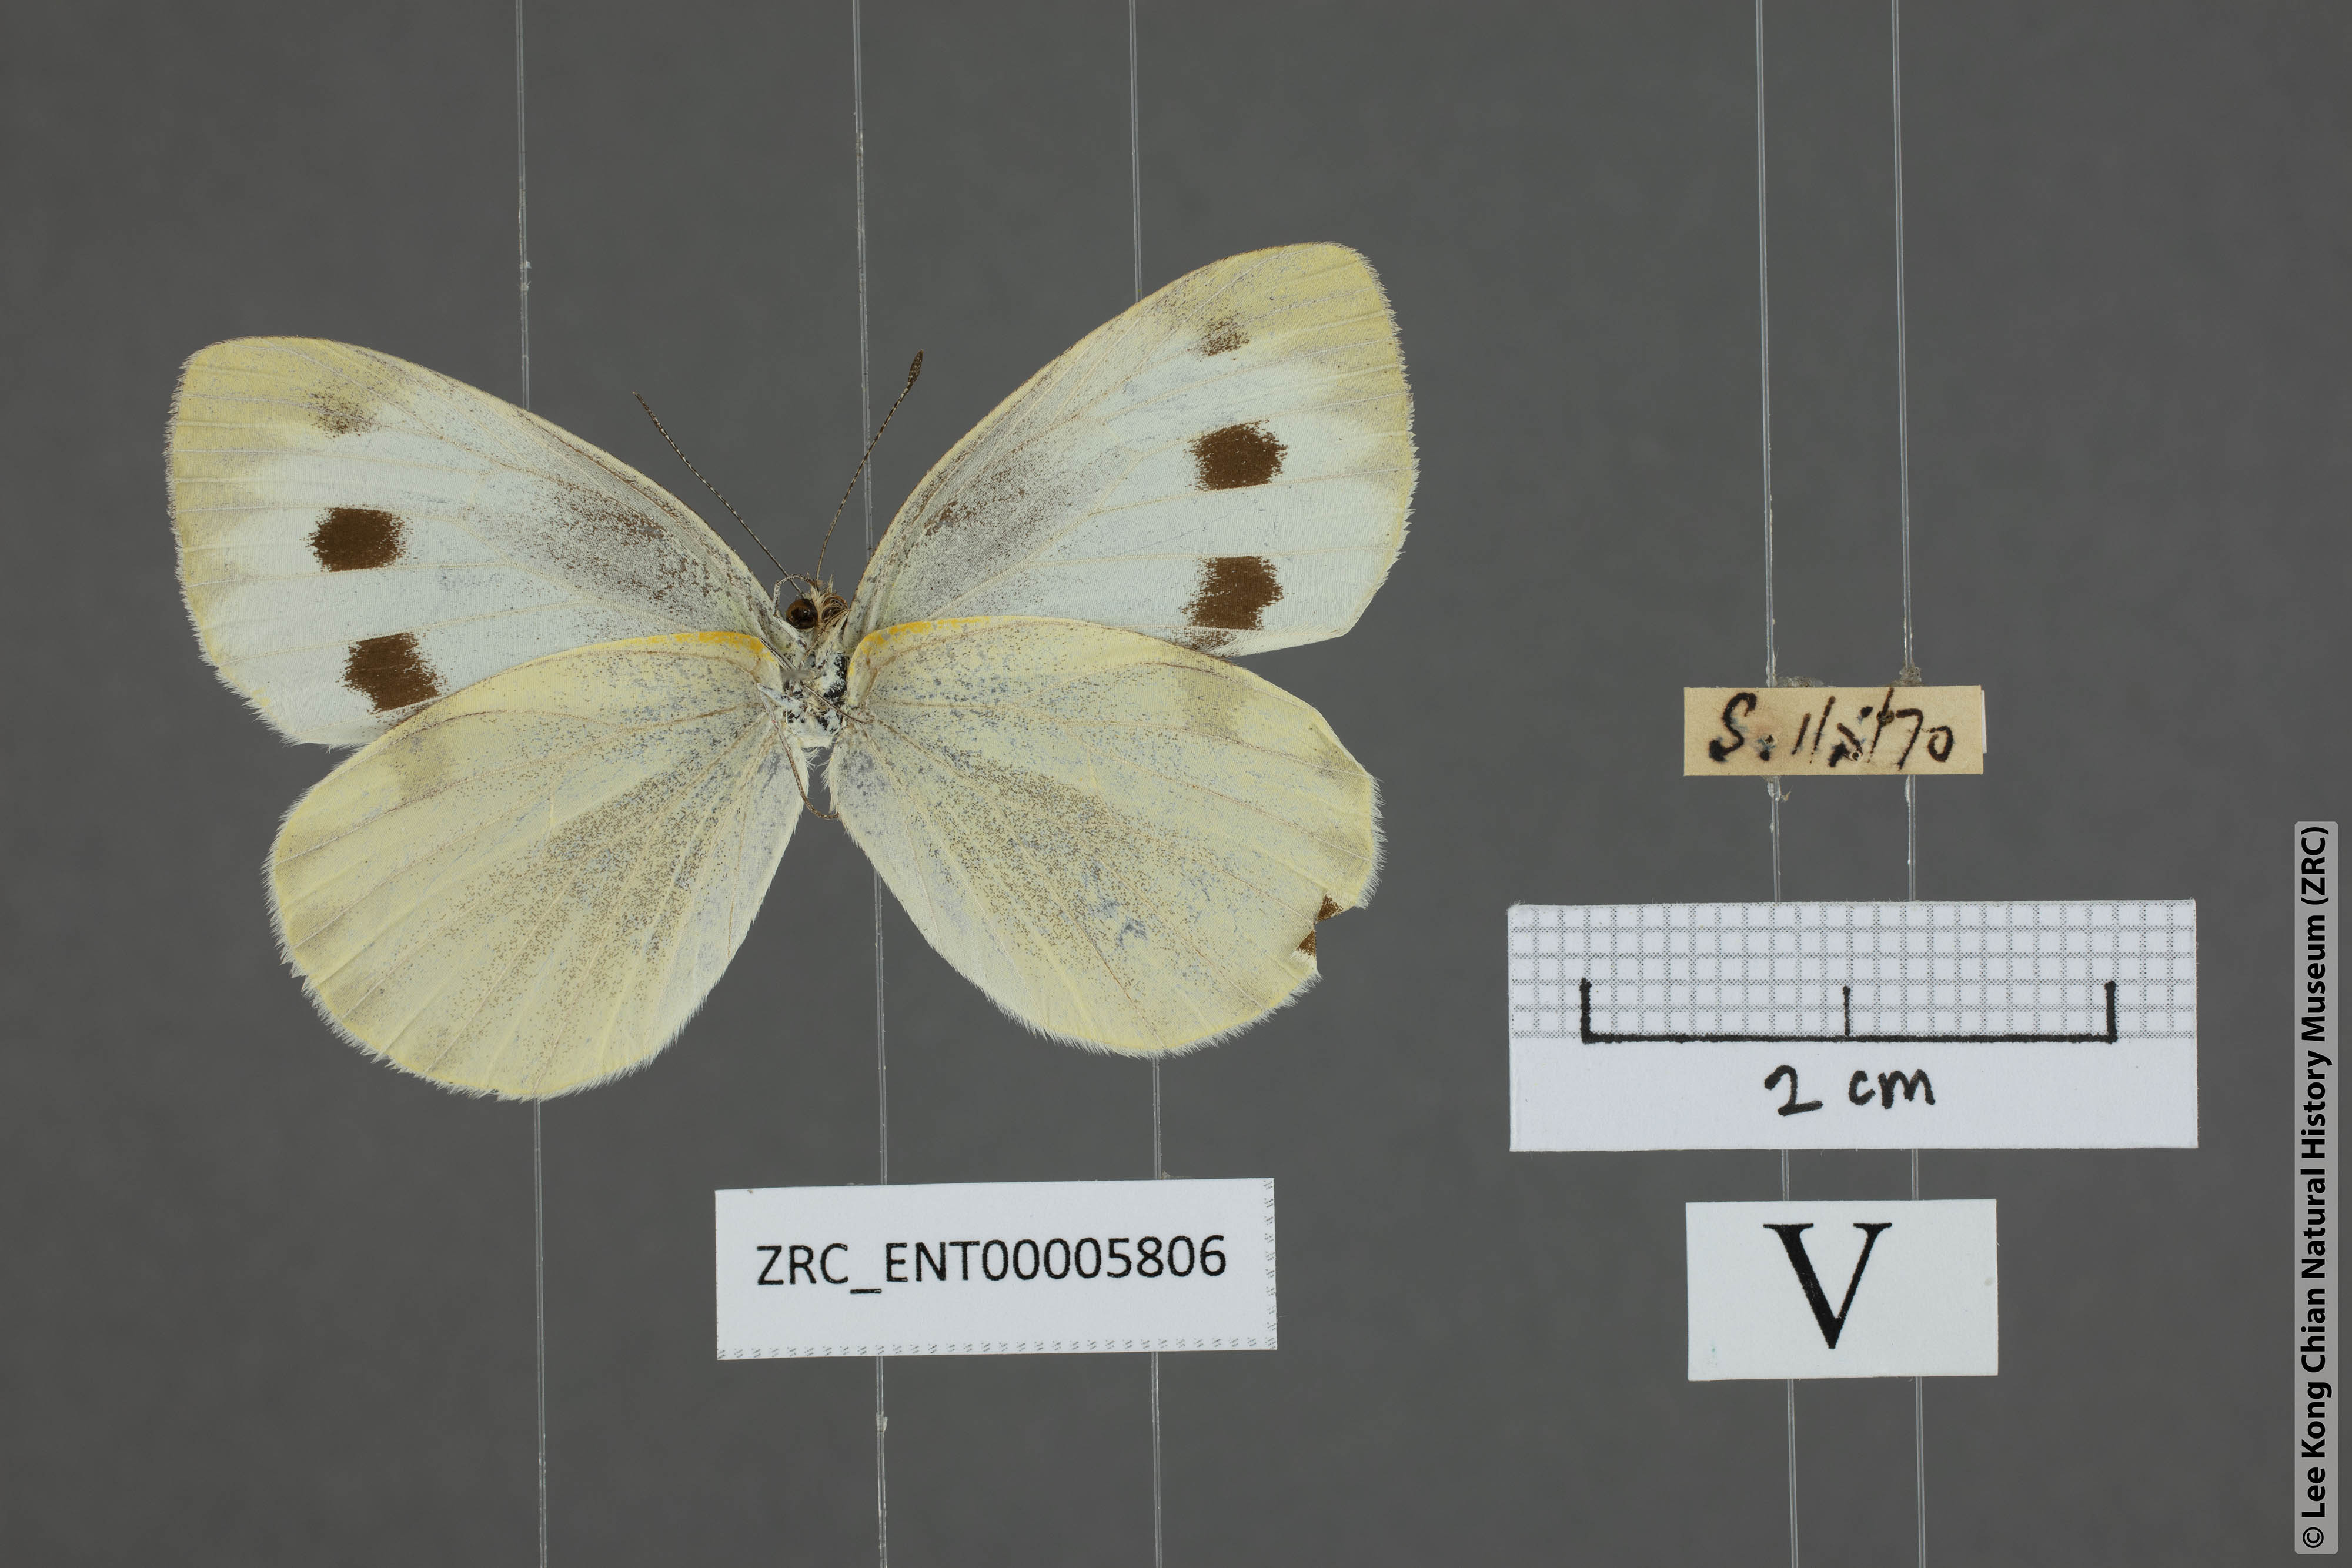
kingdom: Animalia
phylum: Arthropoda
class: Insecta
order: Lepidoptera
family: Pieridae
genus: Pieris
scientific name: Pieris canidia
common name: Indian cabbage white
